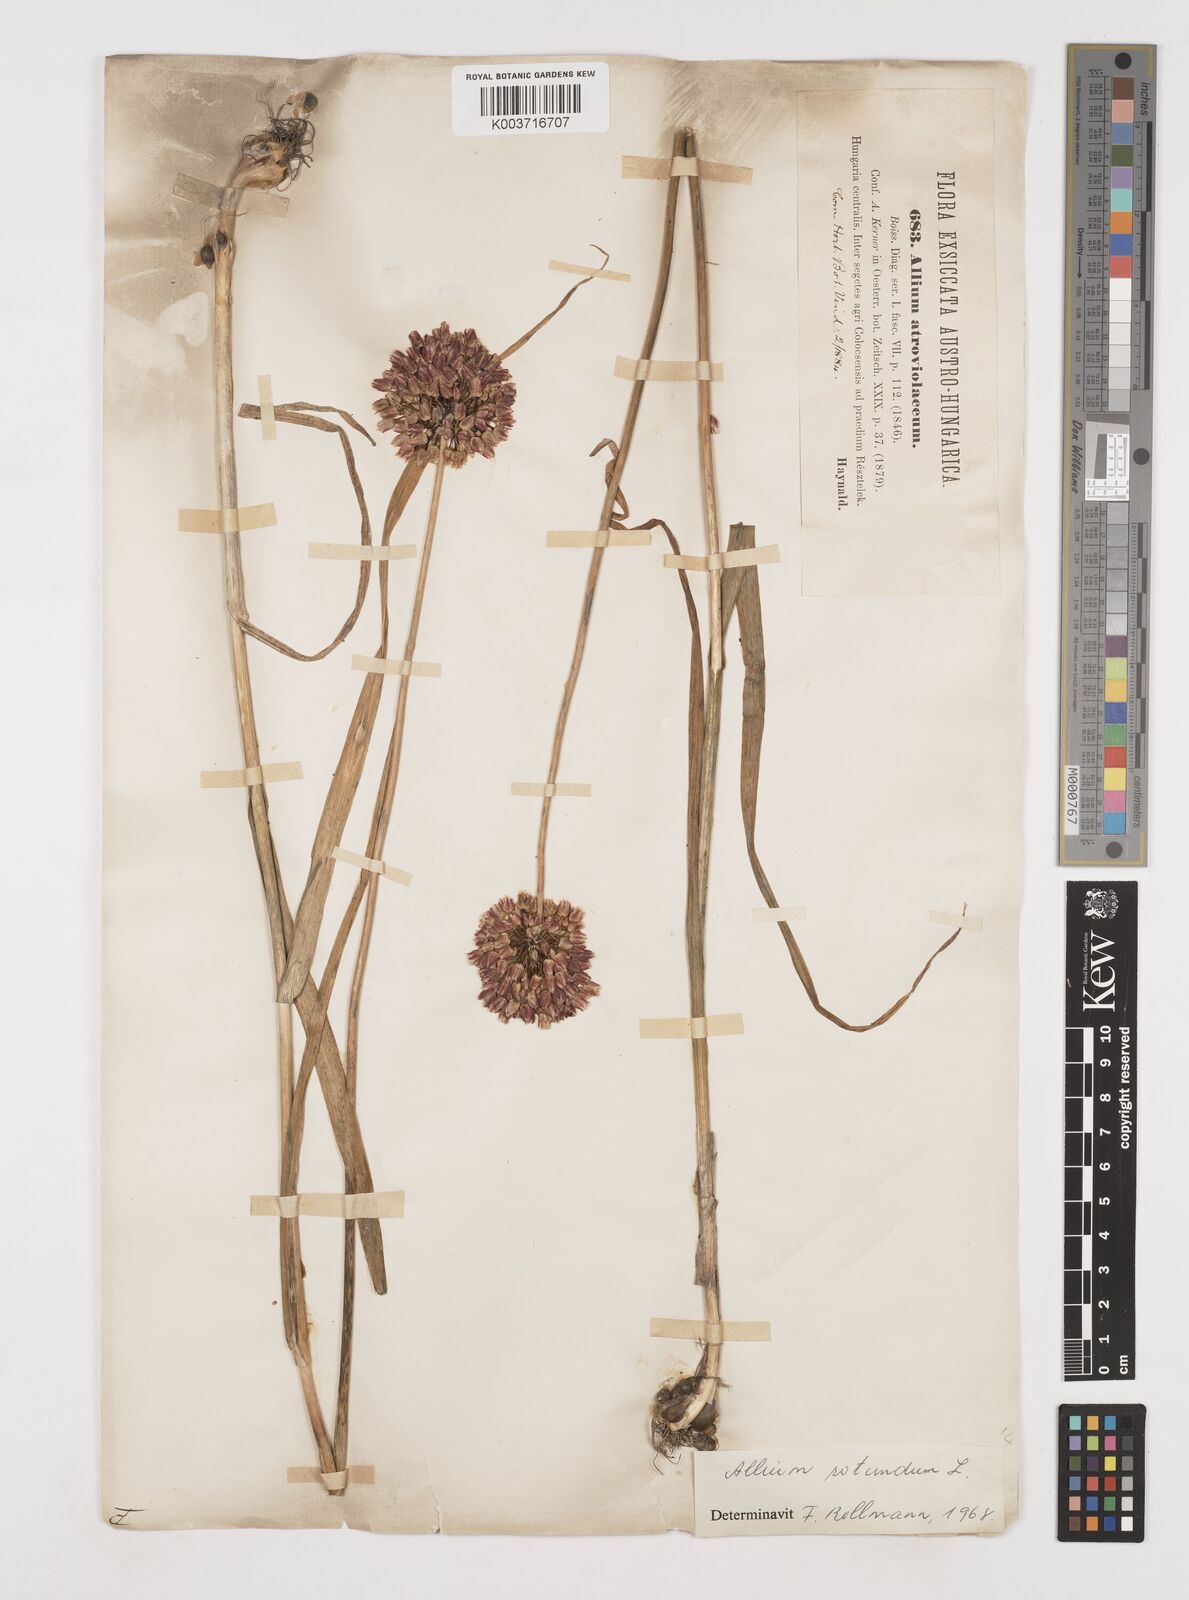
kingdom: Plantae
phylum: Tracheophyta
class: Liliopsida
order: Asparagales
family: Amaryllidaceae
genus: Allium
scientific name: Allium rotundum
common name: Sand leek
